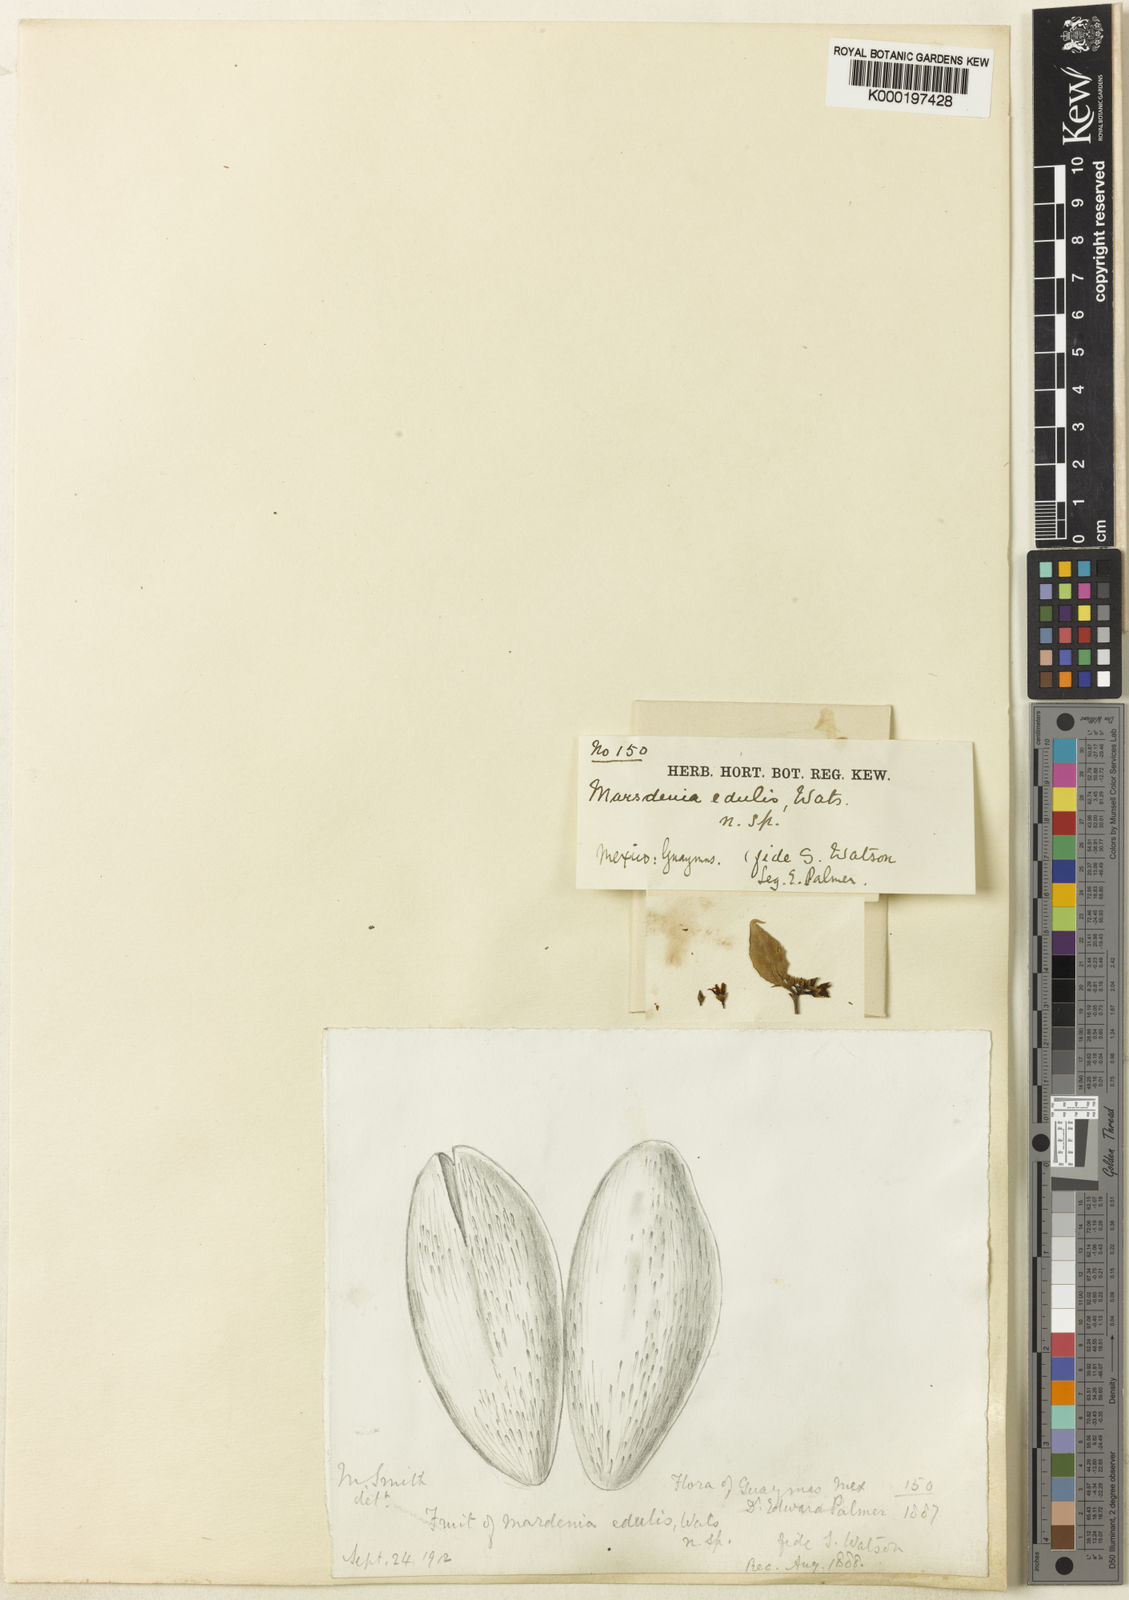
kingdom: Plantae
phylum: Tracheophyta
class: Magnoliopsida
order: Gentianales
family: Apocynaceae
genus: Ruehssia
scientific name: Ruehssia edulis
